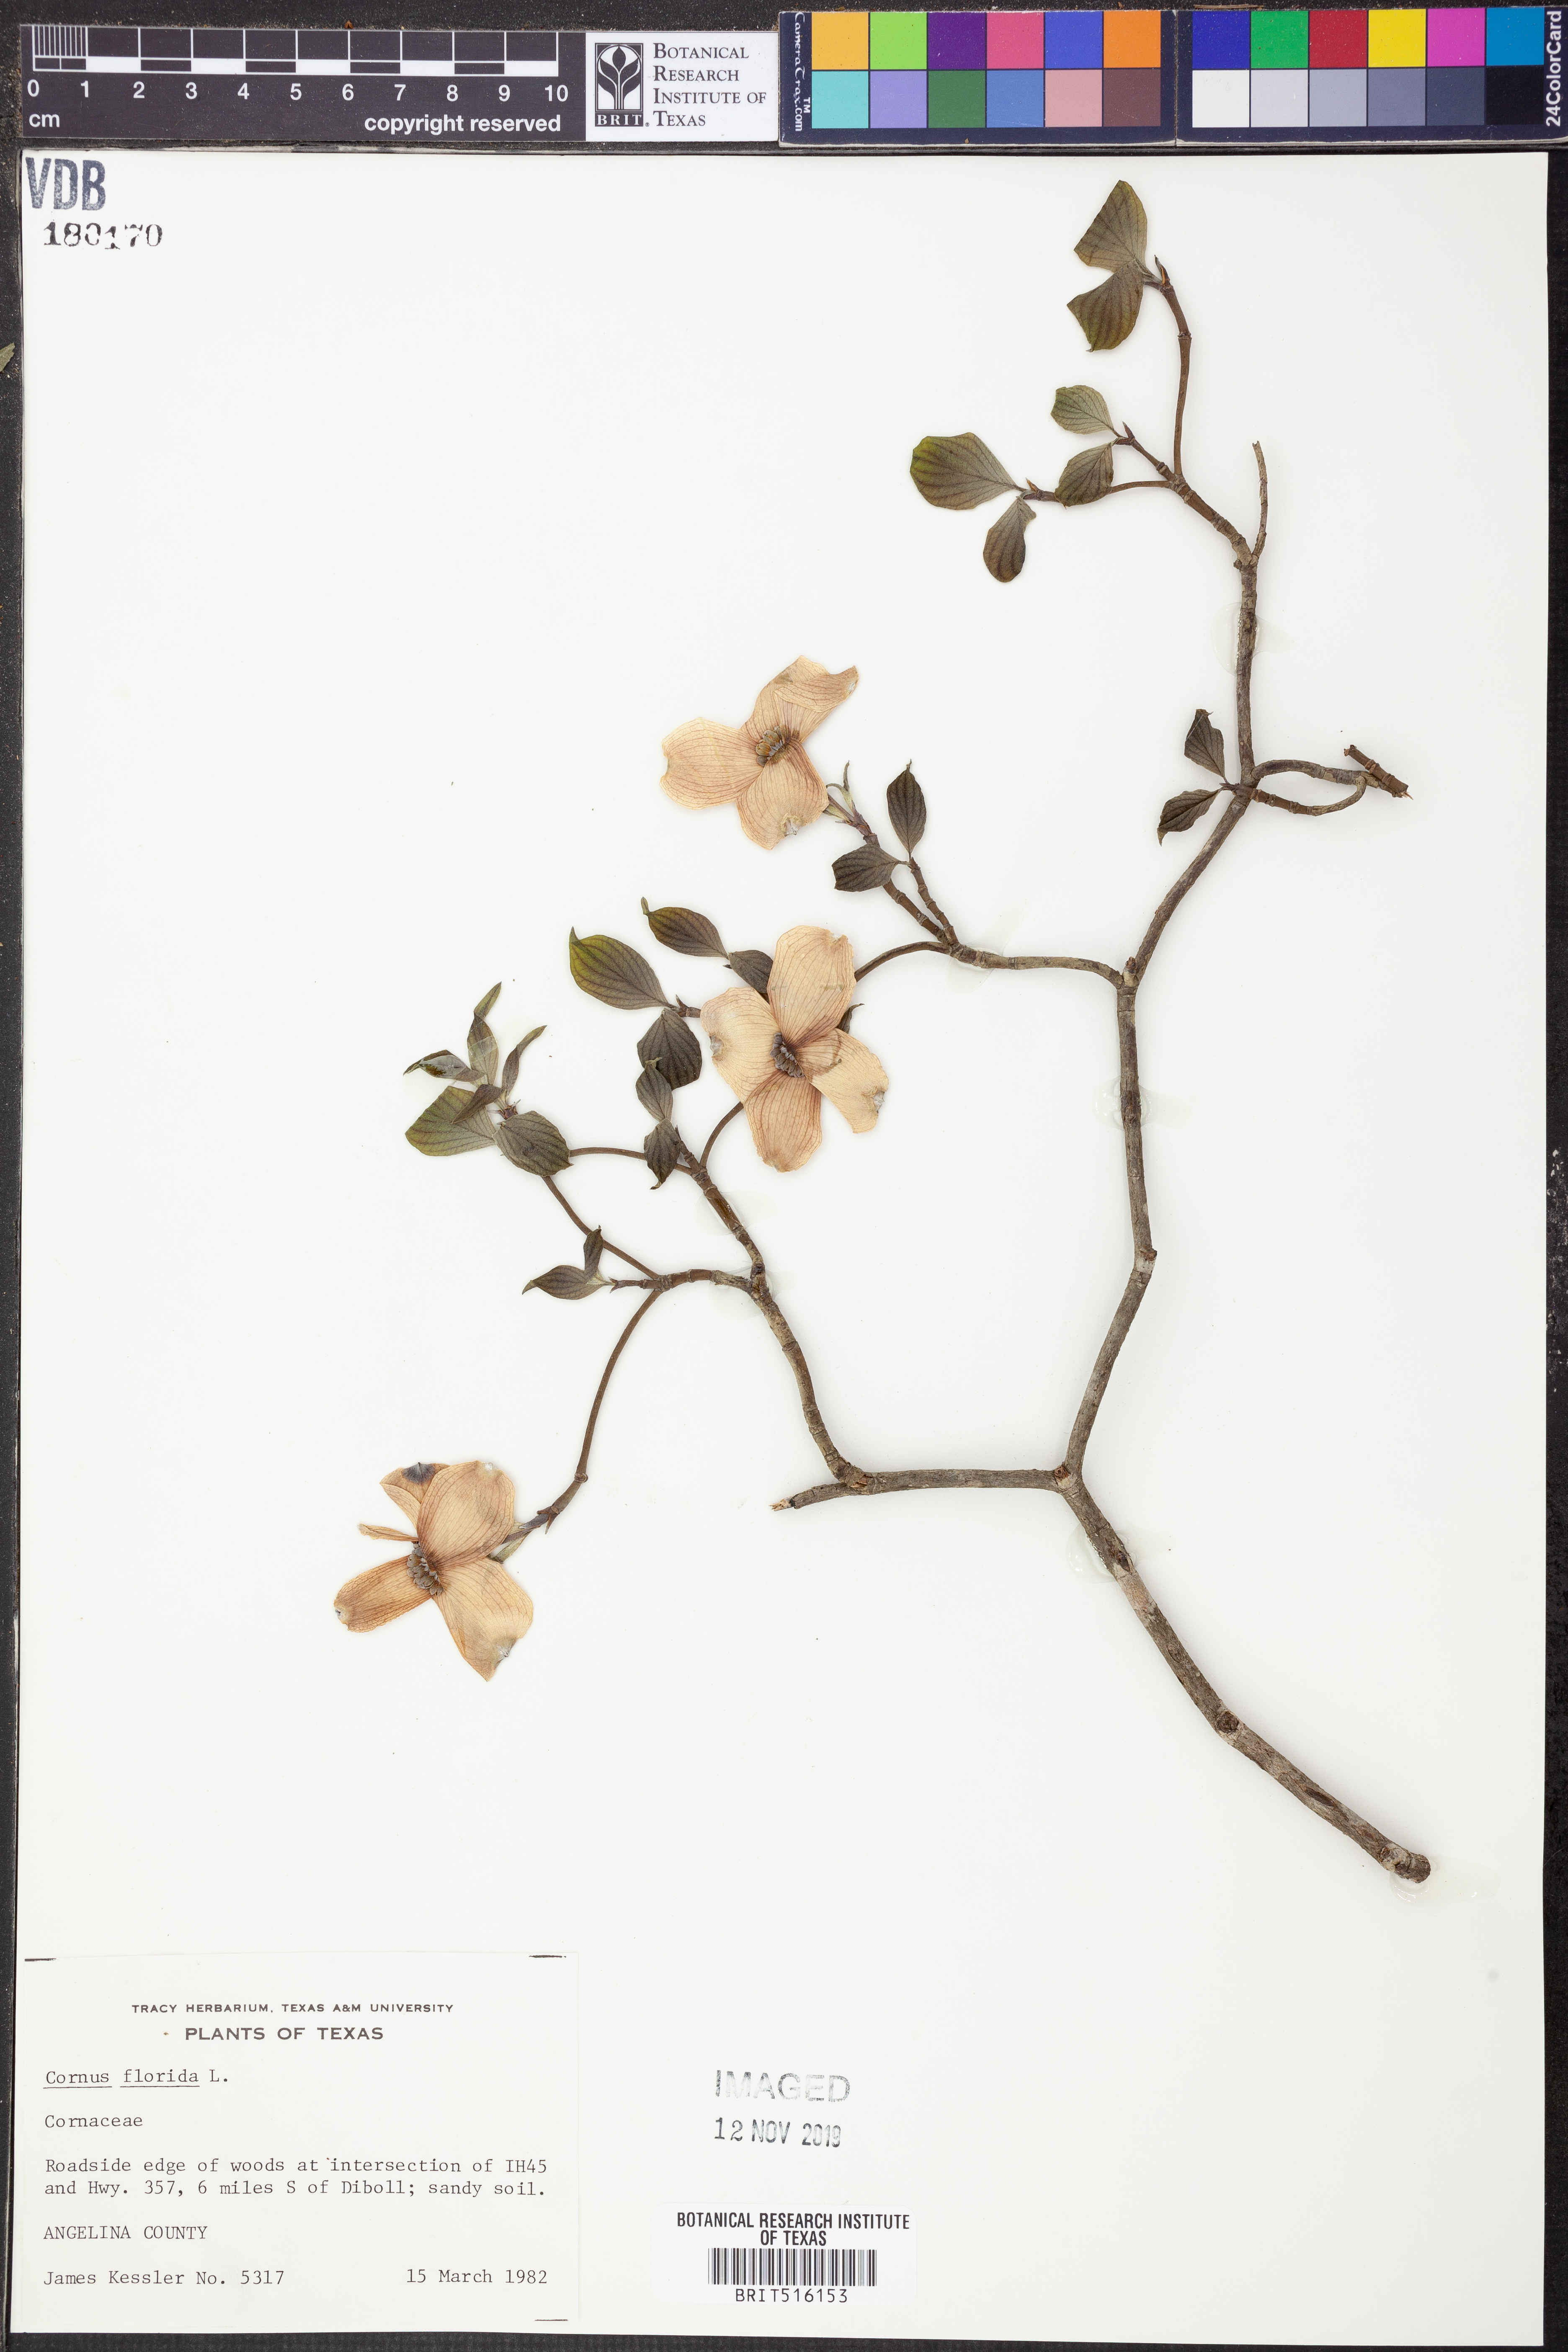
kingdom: Plantae
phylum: Tracheophyta
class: Magnoliopsida
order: Cornales
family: Cornaceae
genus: Cornus
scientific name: Cornus florida
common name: Flowering dogwood
